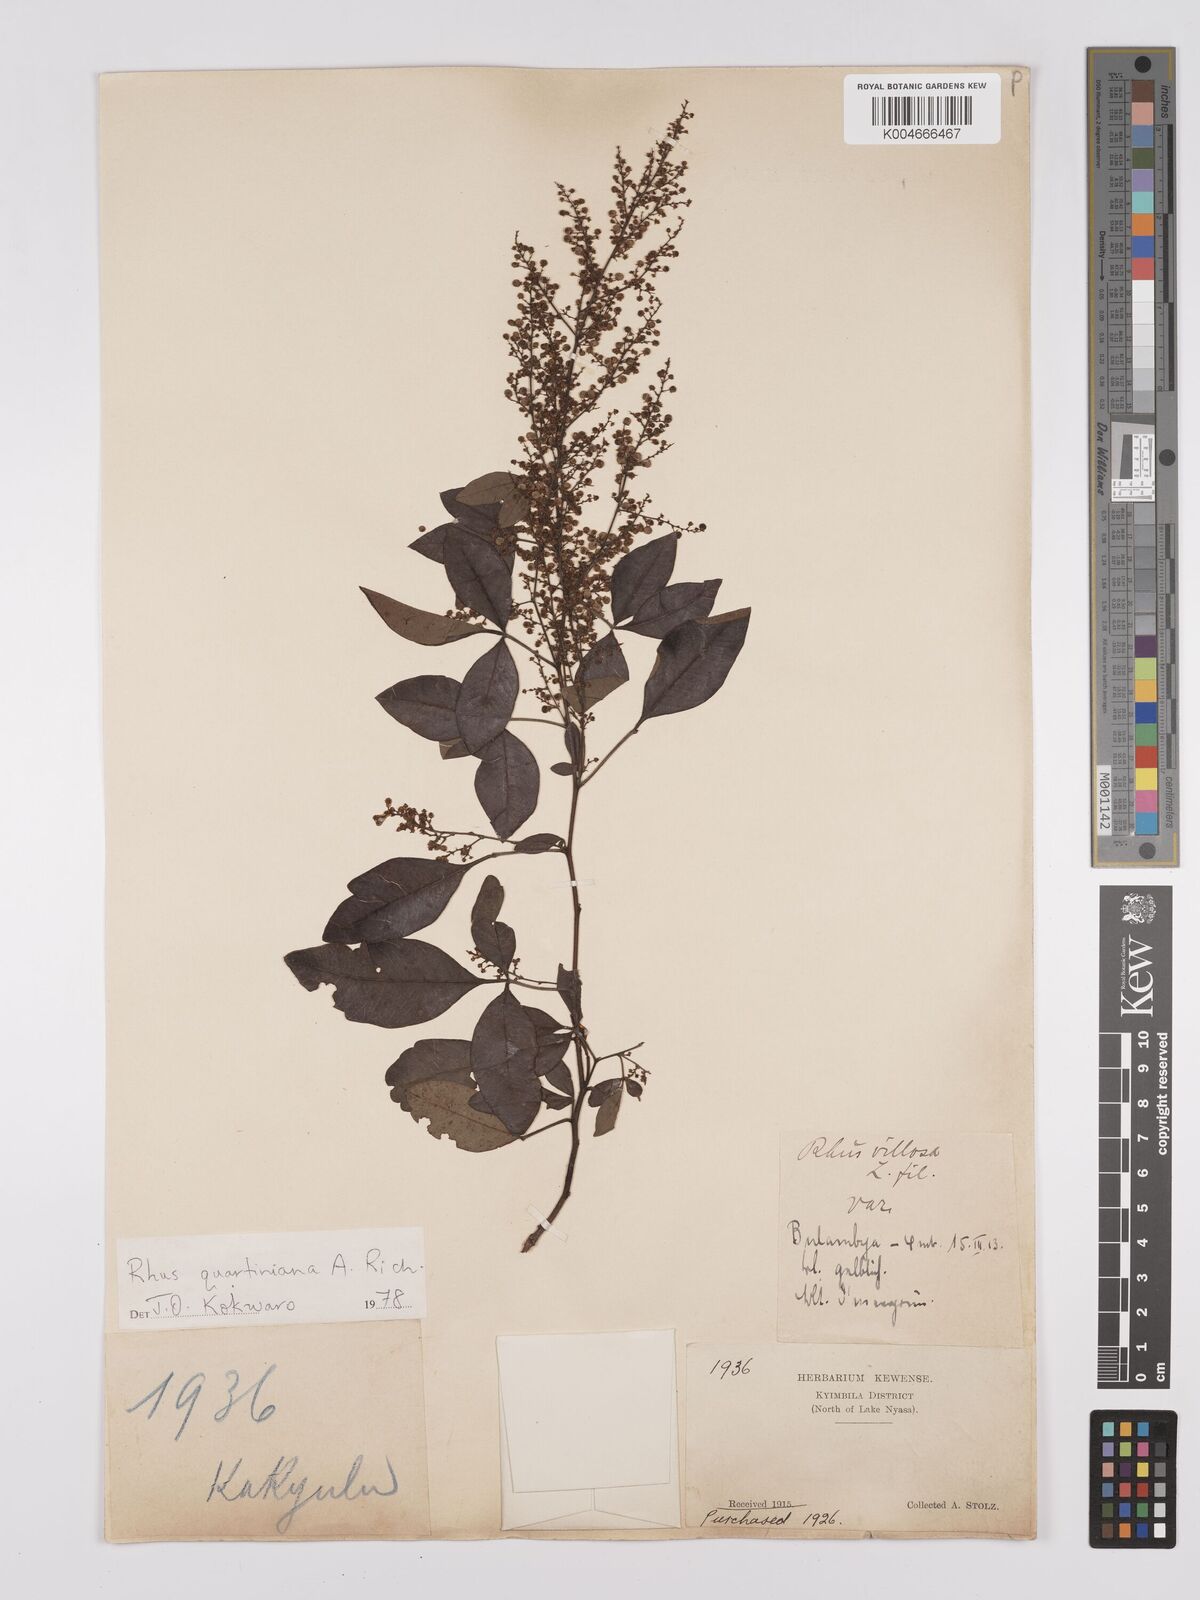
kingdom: Plantae
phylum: Tracheophyta
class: Magnoliopsida
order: Sapindales
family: Anacardiaceae
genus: Searsia
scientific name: Searsia quartiniana
